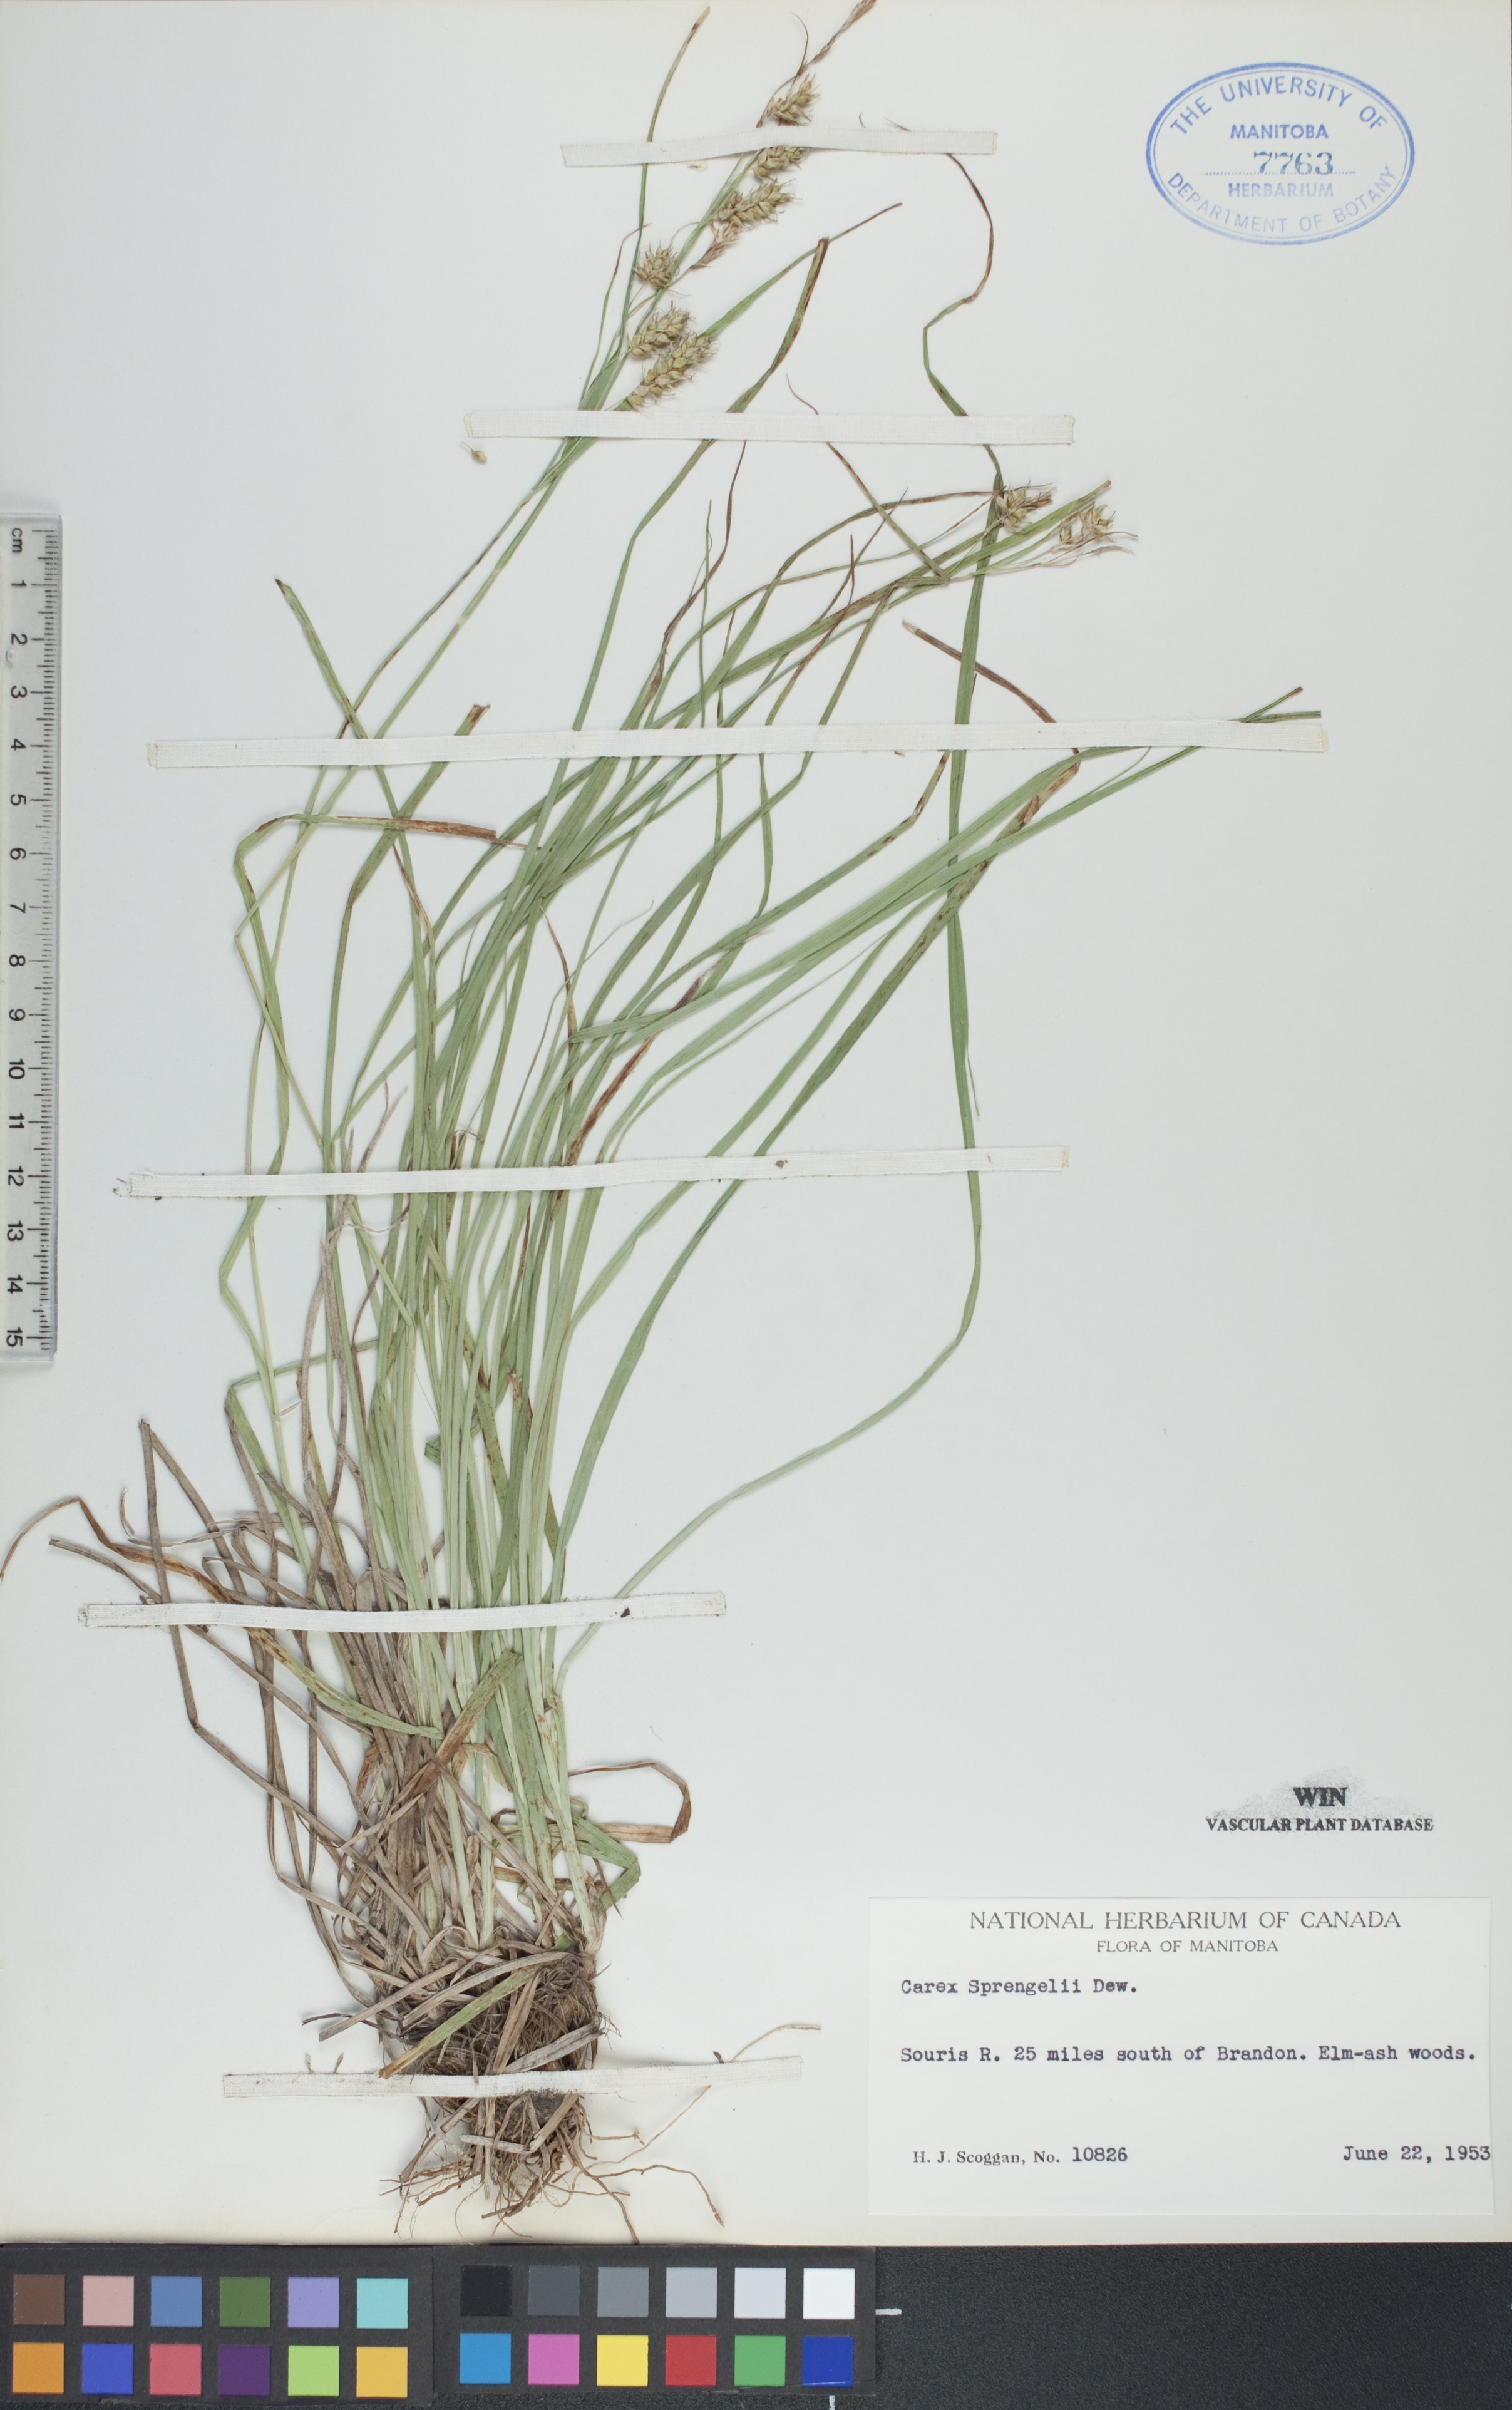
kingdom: Plantae
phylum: Tracheophyta
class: Liliopsida
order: Poales
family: Cyperaceae
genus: Carex
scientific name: Carex sprengelii
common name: Long-beaked sedge
